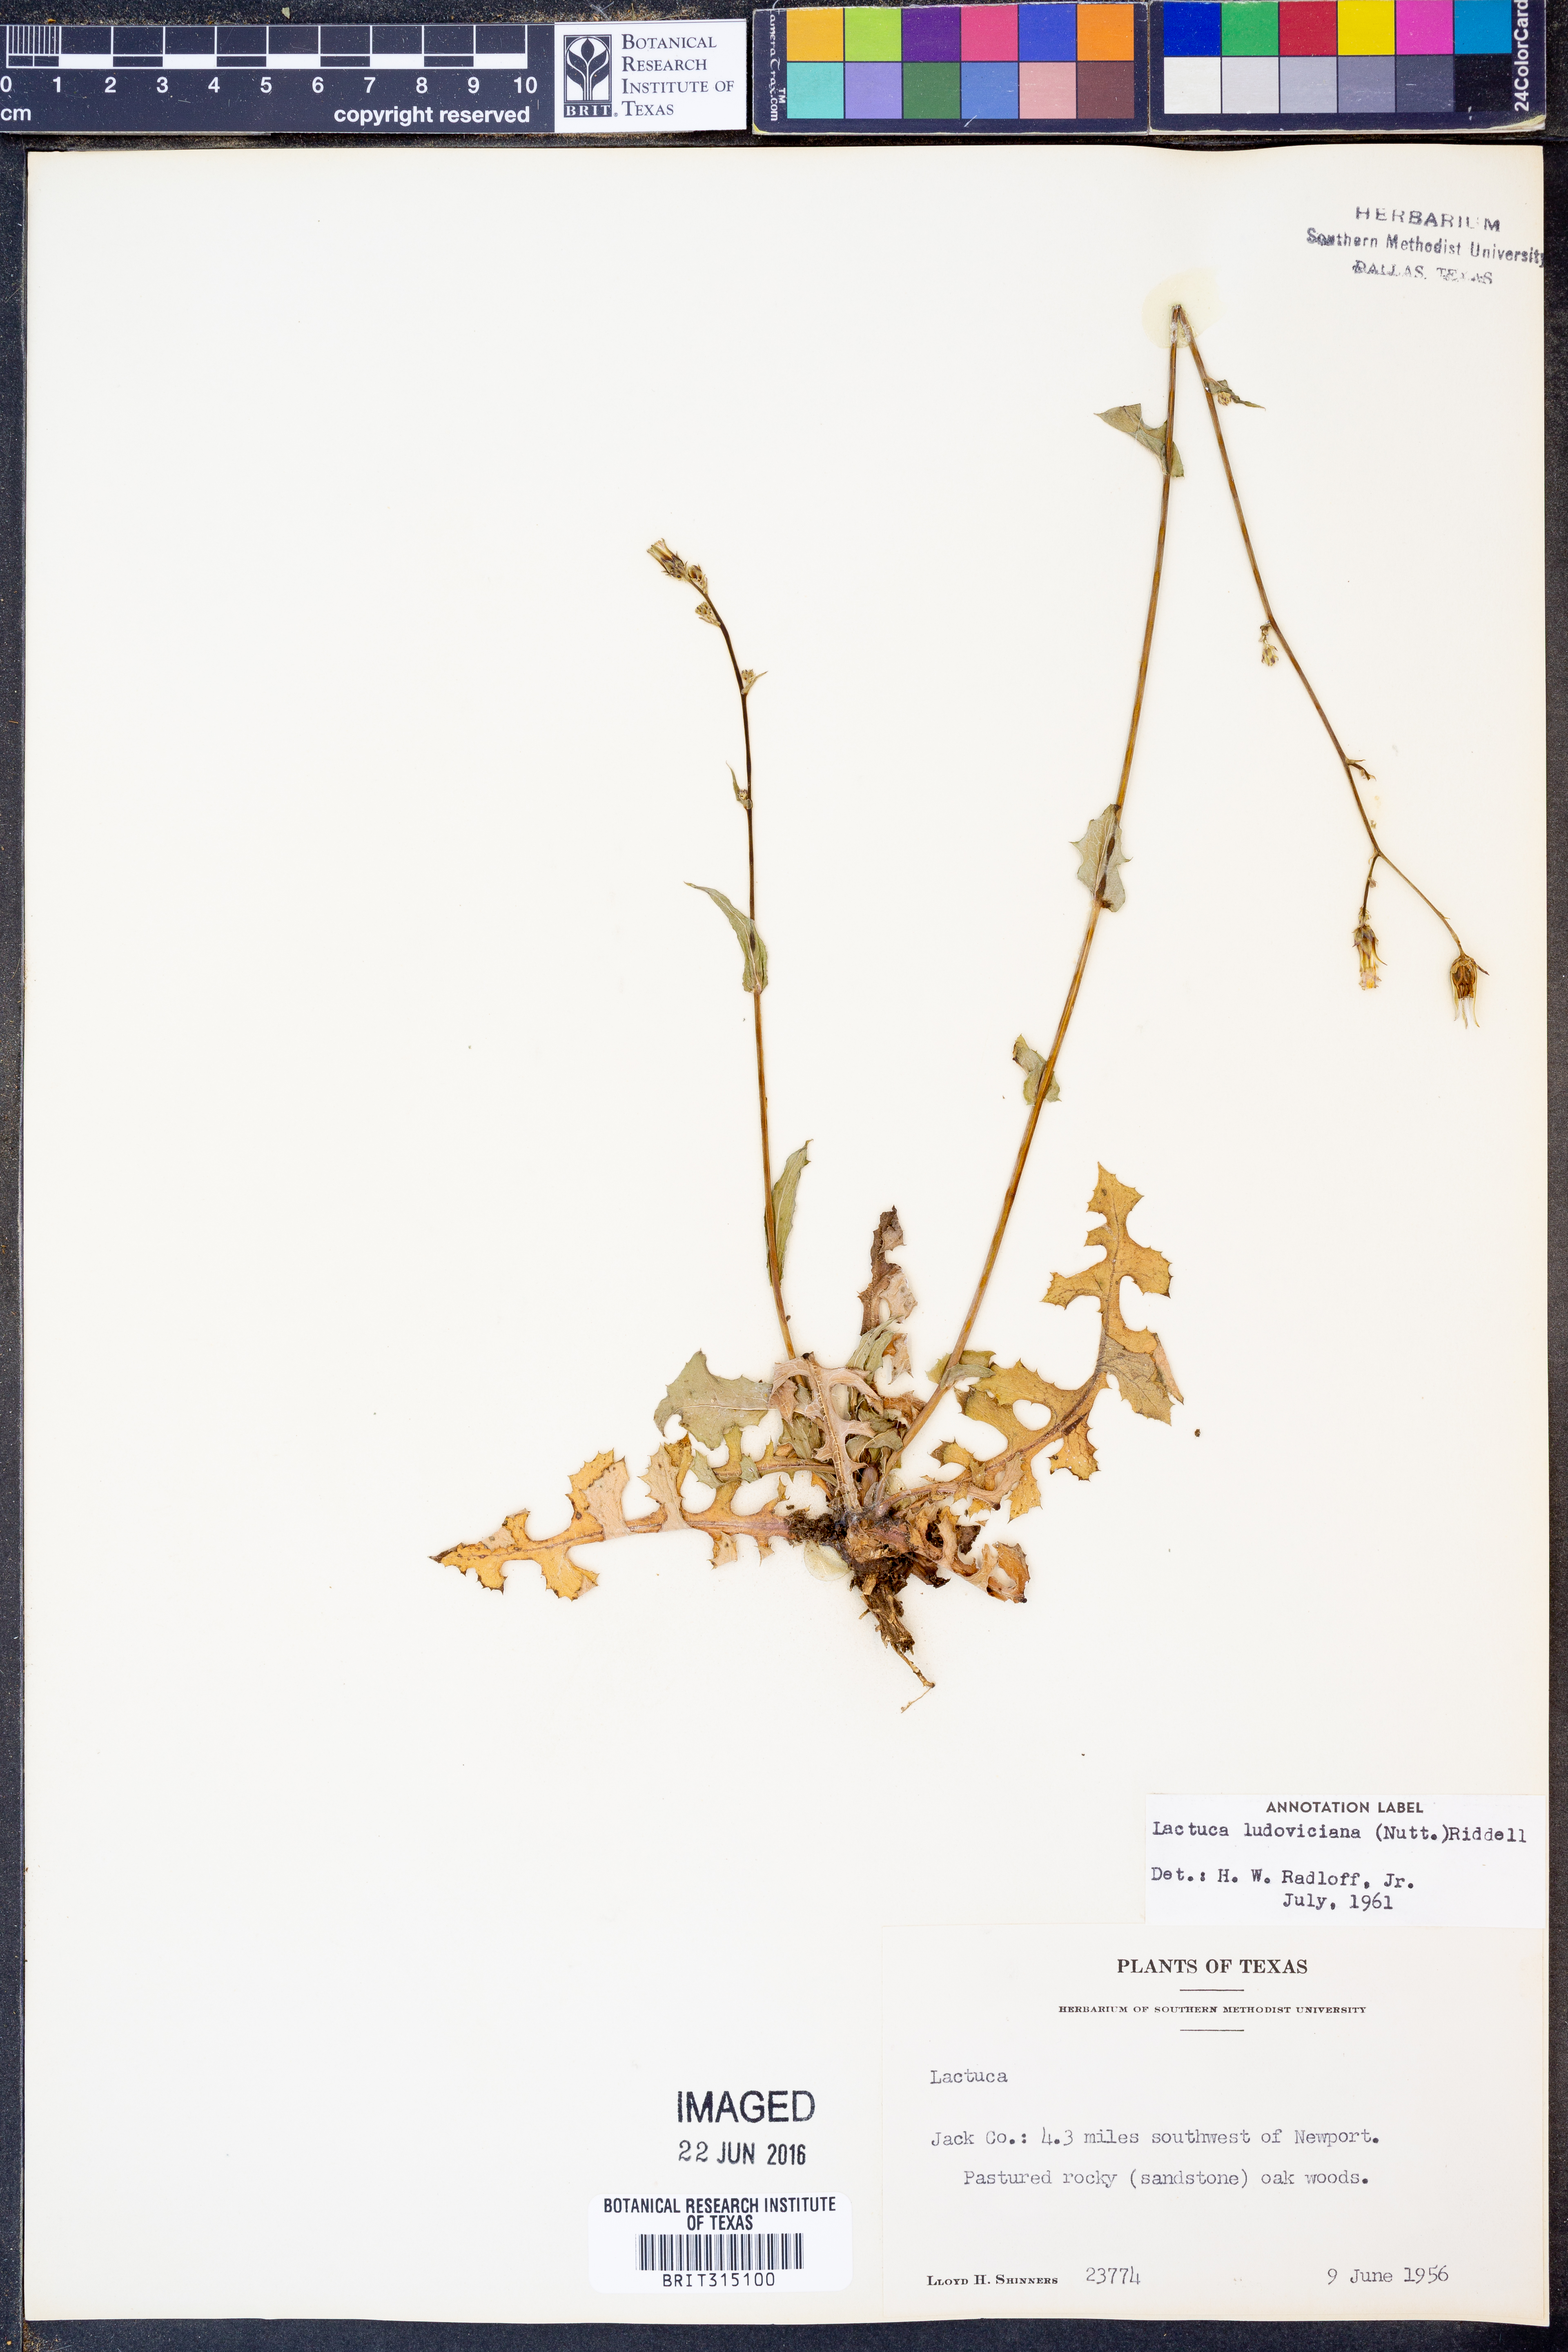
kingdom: Plantae
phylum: Tracheophyta
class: Magnoliopsida
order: Asterales
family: Asteraceae
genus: Lactuca
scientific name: Lactuca ludoviciana
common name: Louisiana lettuce
